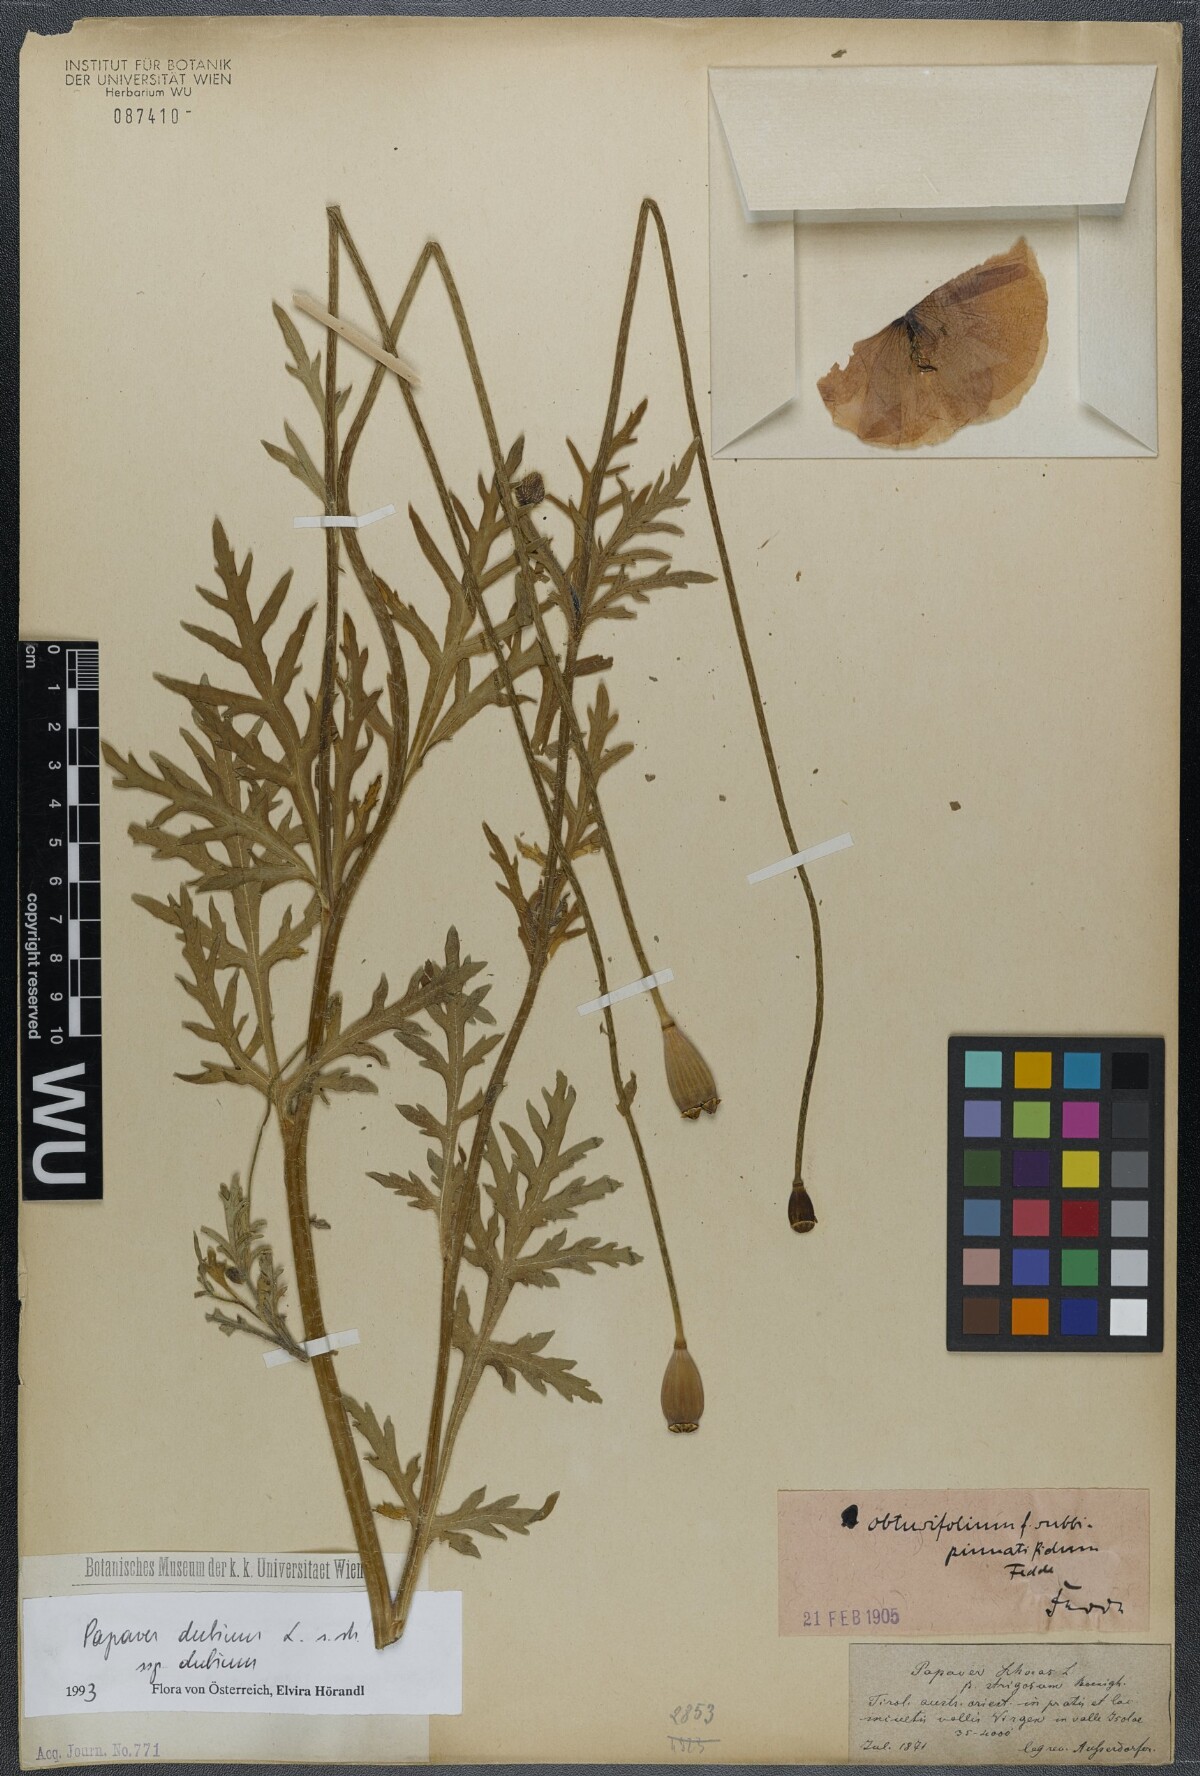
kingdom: Plantae
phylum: Tracheophyta
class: Magnoliopsida
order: Ranunculales
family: Papaveraceae
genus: Papaver
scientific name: Papaver dubium
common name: Long-headed poppy
